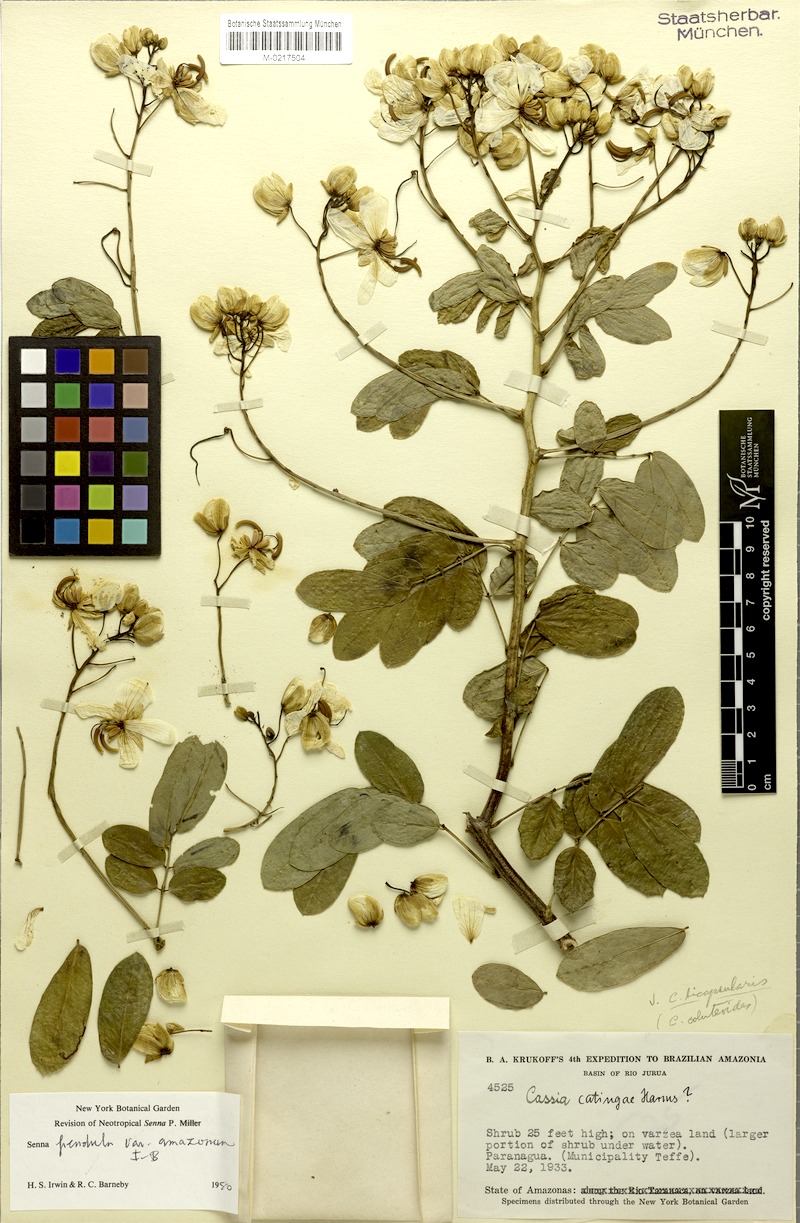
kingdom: Plantae
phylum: Tracheophyta
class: Magnoliopsida
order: Fabales
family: Fabaceae
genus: Senna
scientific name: Senna pendula
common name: Easter cassia
